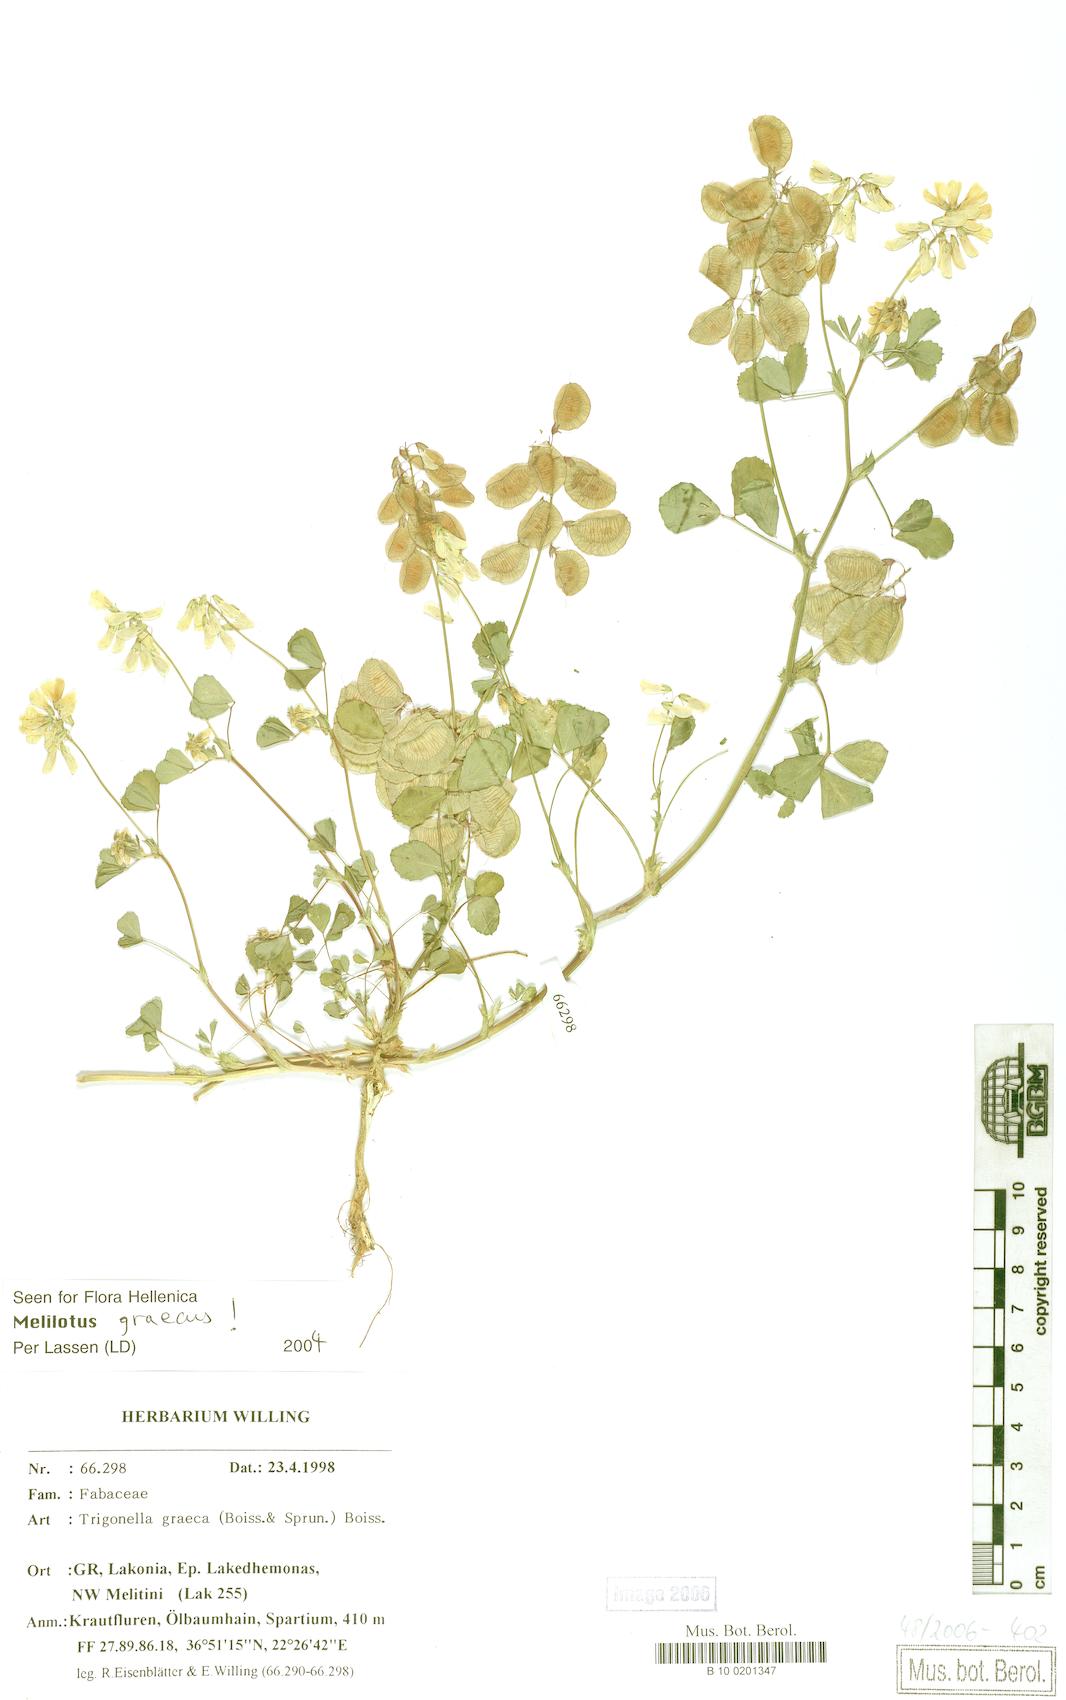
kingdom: Plantae
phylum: Tracheophyta
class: Magnoliopsida
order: Fabales
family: Fabaceae
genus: Trigonella
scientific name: Trigonella graeca
